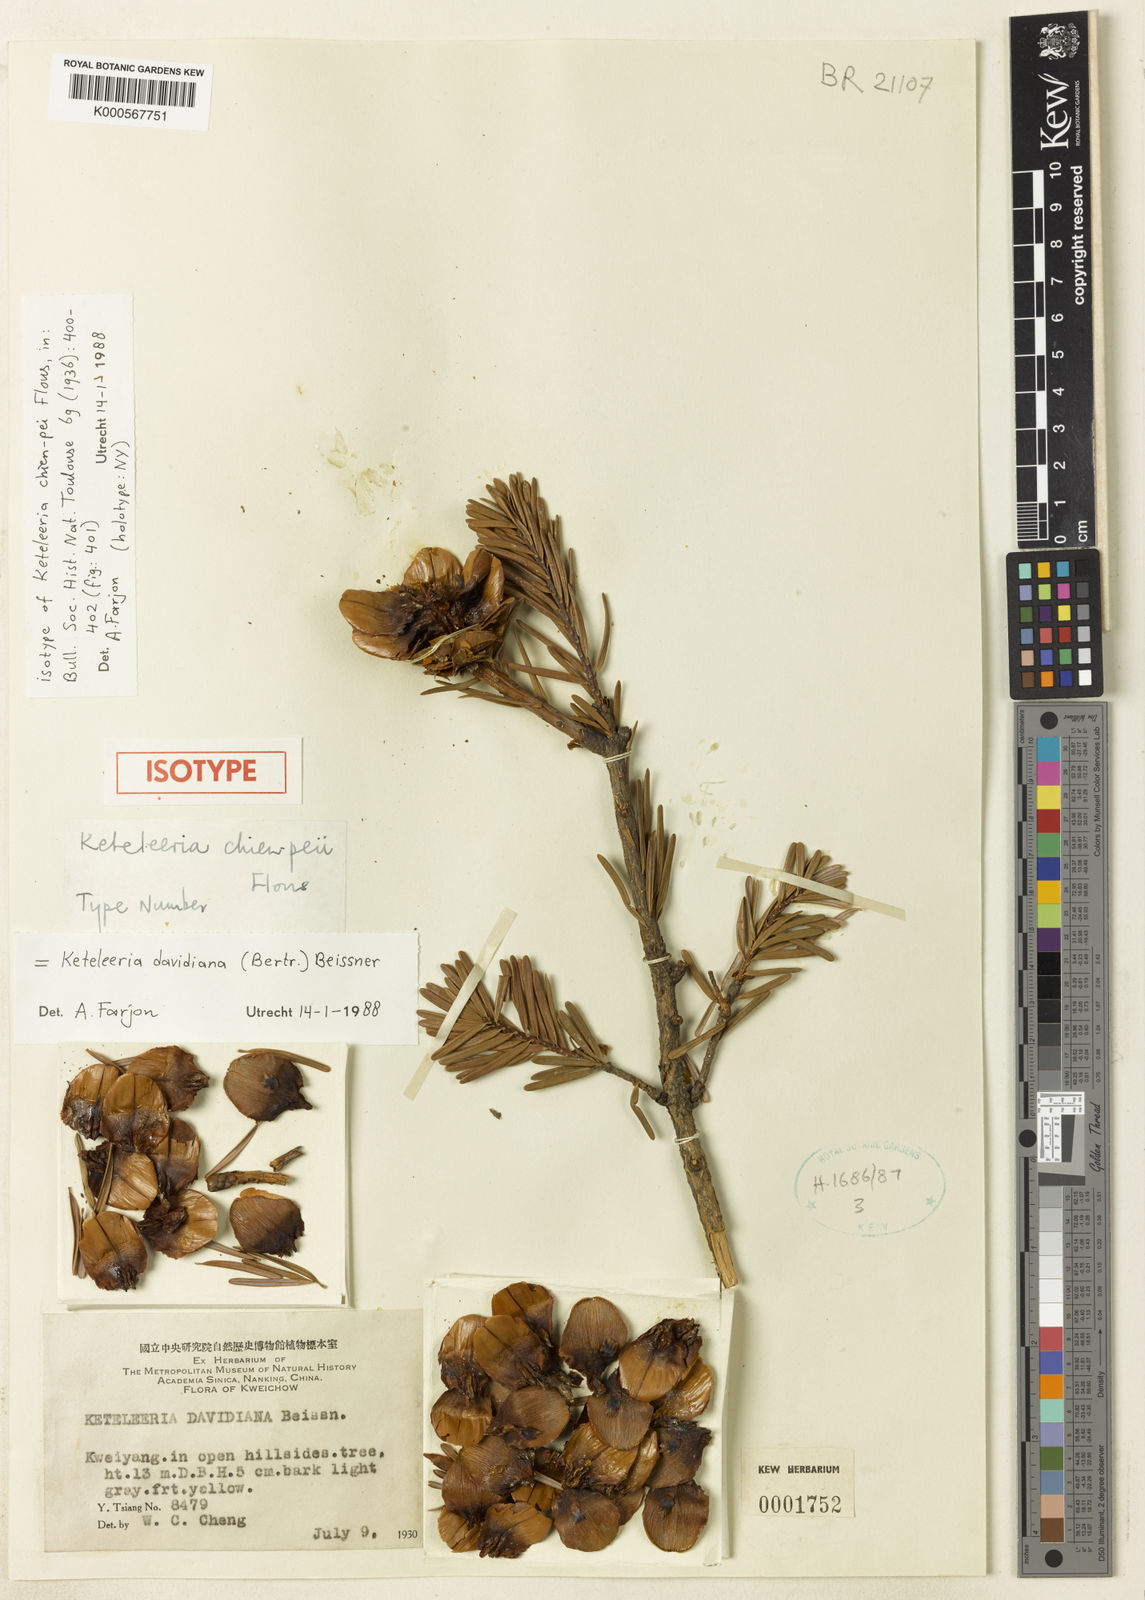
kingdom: Plantae
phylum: Tracheophyta
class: Pinopsida
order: Pinales
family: Pinaceae
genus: Keteleeria
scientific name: Keteleeria davidiana
